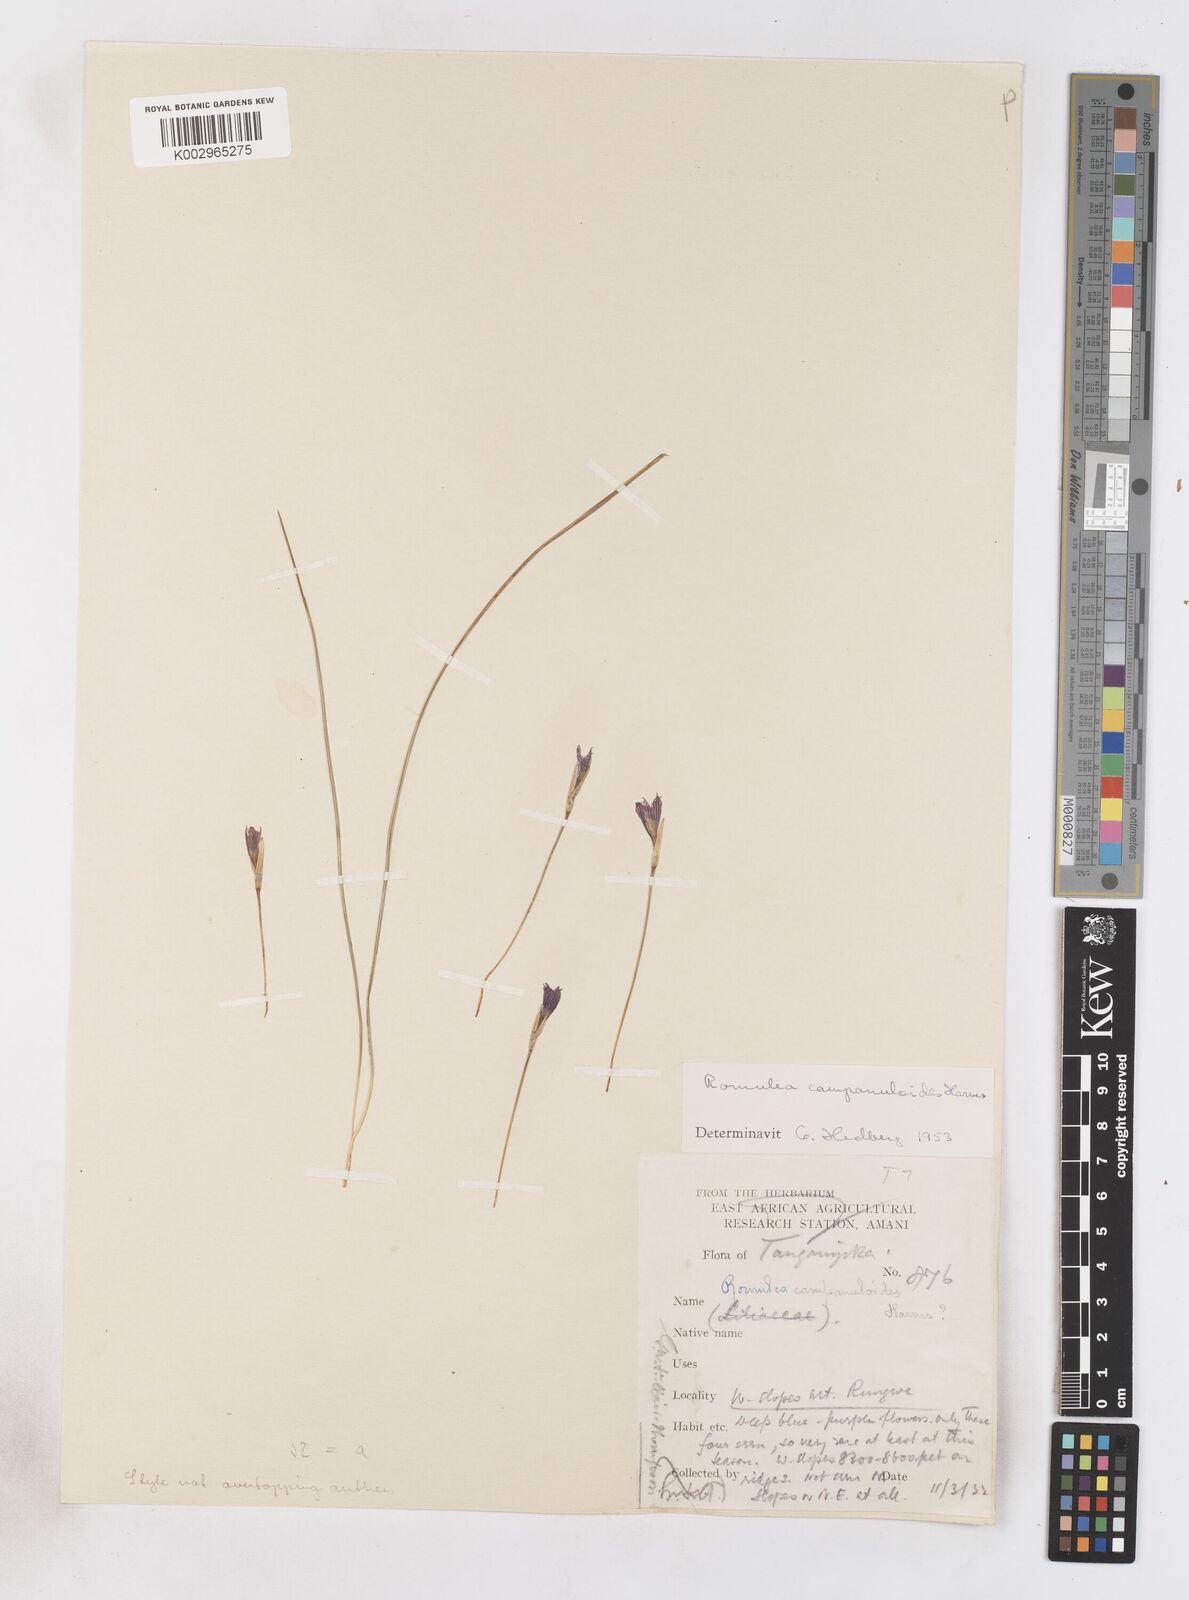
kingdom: Plantae
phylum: Tracheophyta
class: Liliopsida
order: Asparagales
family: Iridaceae
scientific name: Iridaceae
